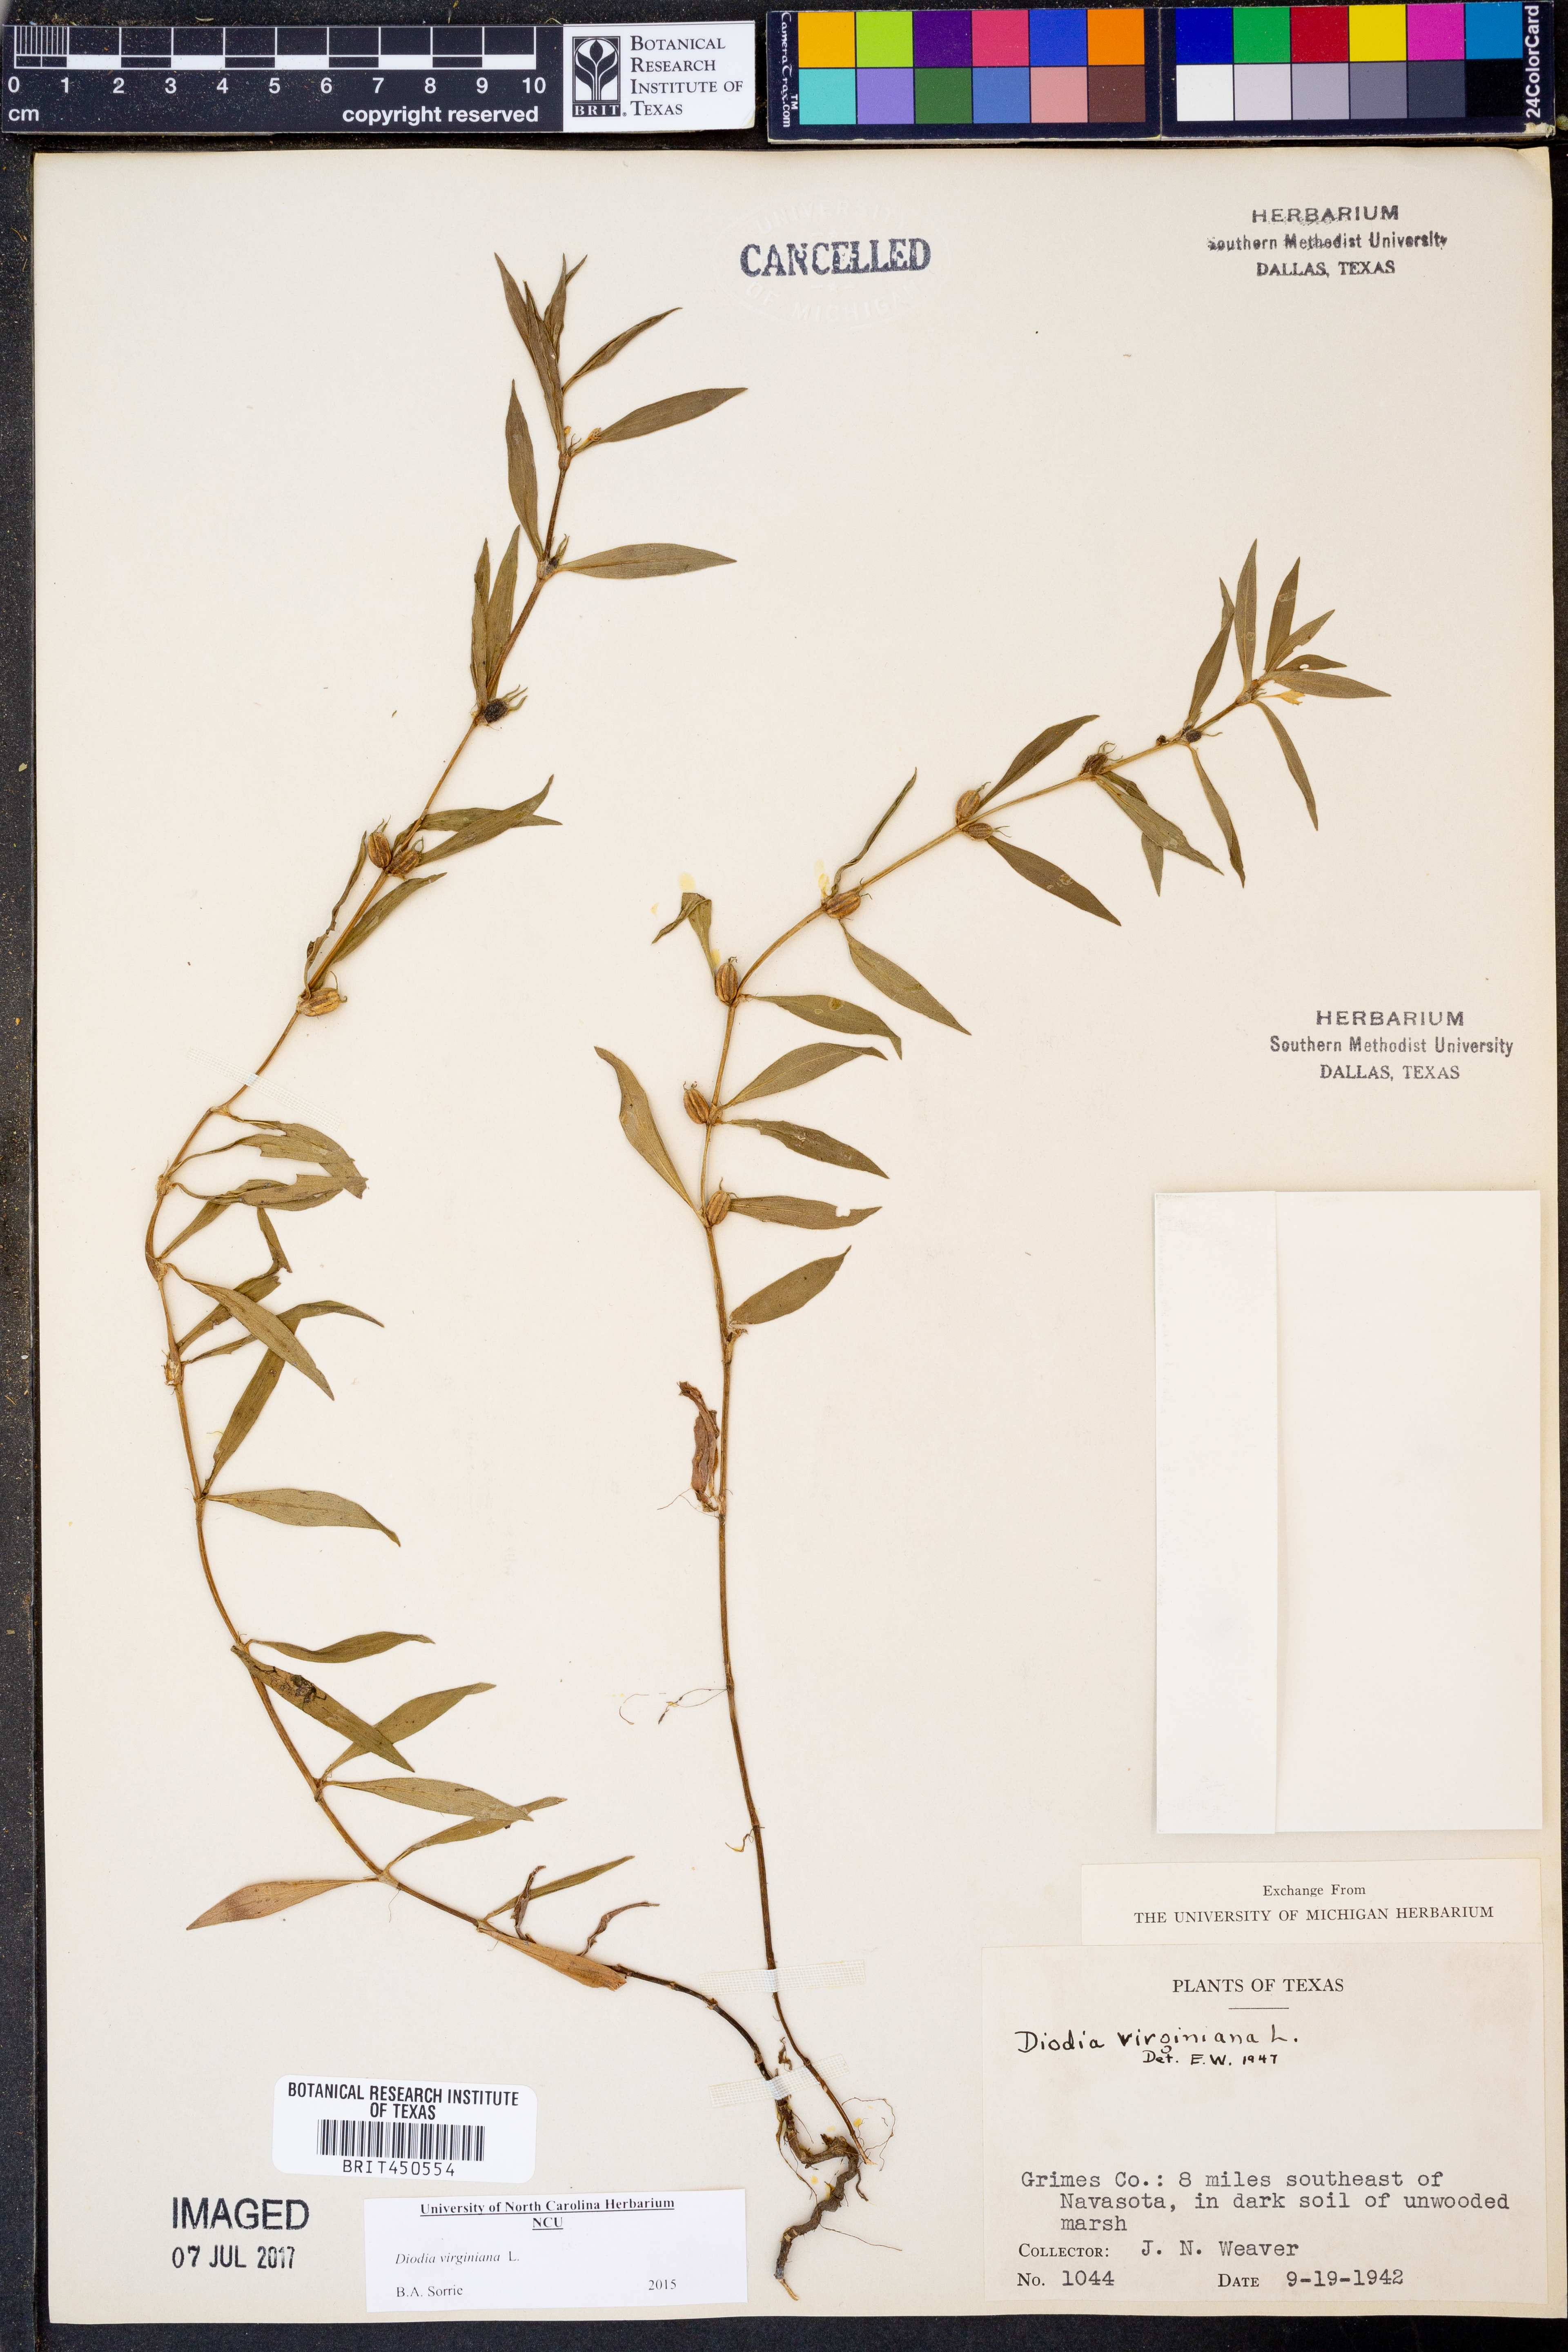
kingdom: Plantae
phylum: Tracheophyta
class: Magnoliopsida
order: Gentianales
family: Rubiaceae
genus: Diodia
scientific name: Diodia virginiana
